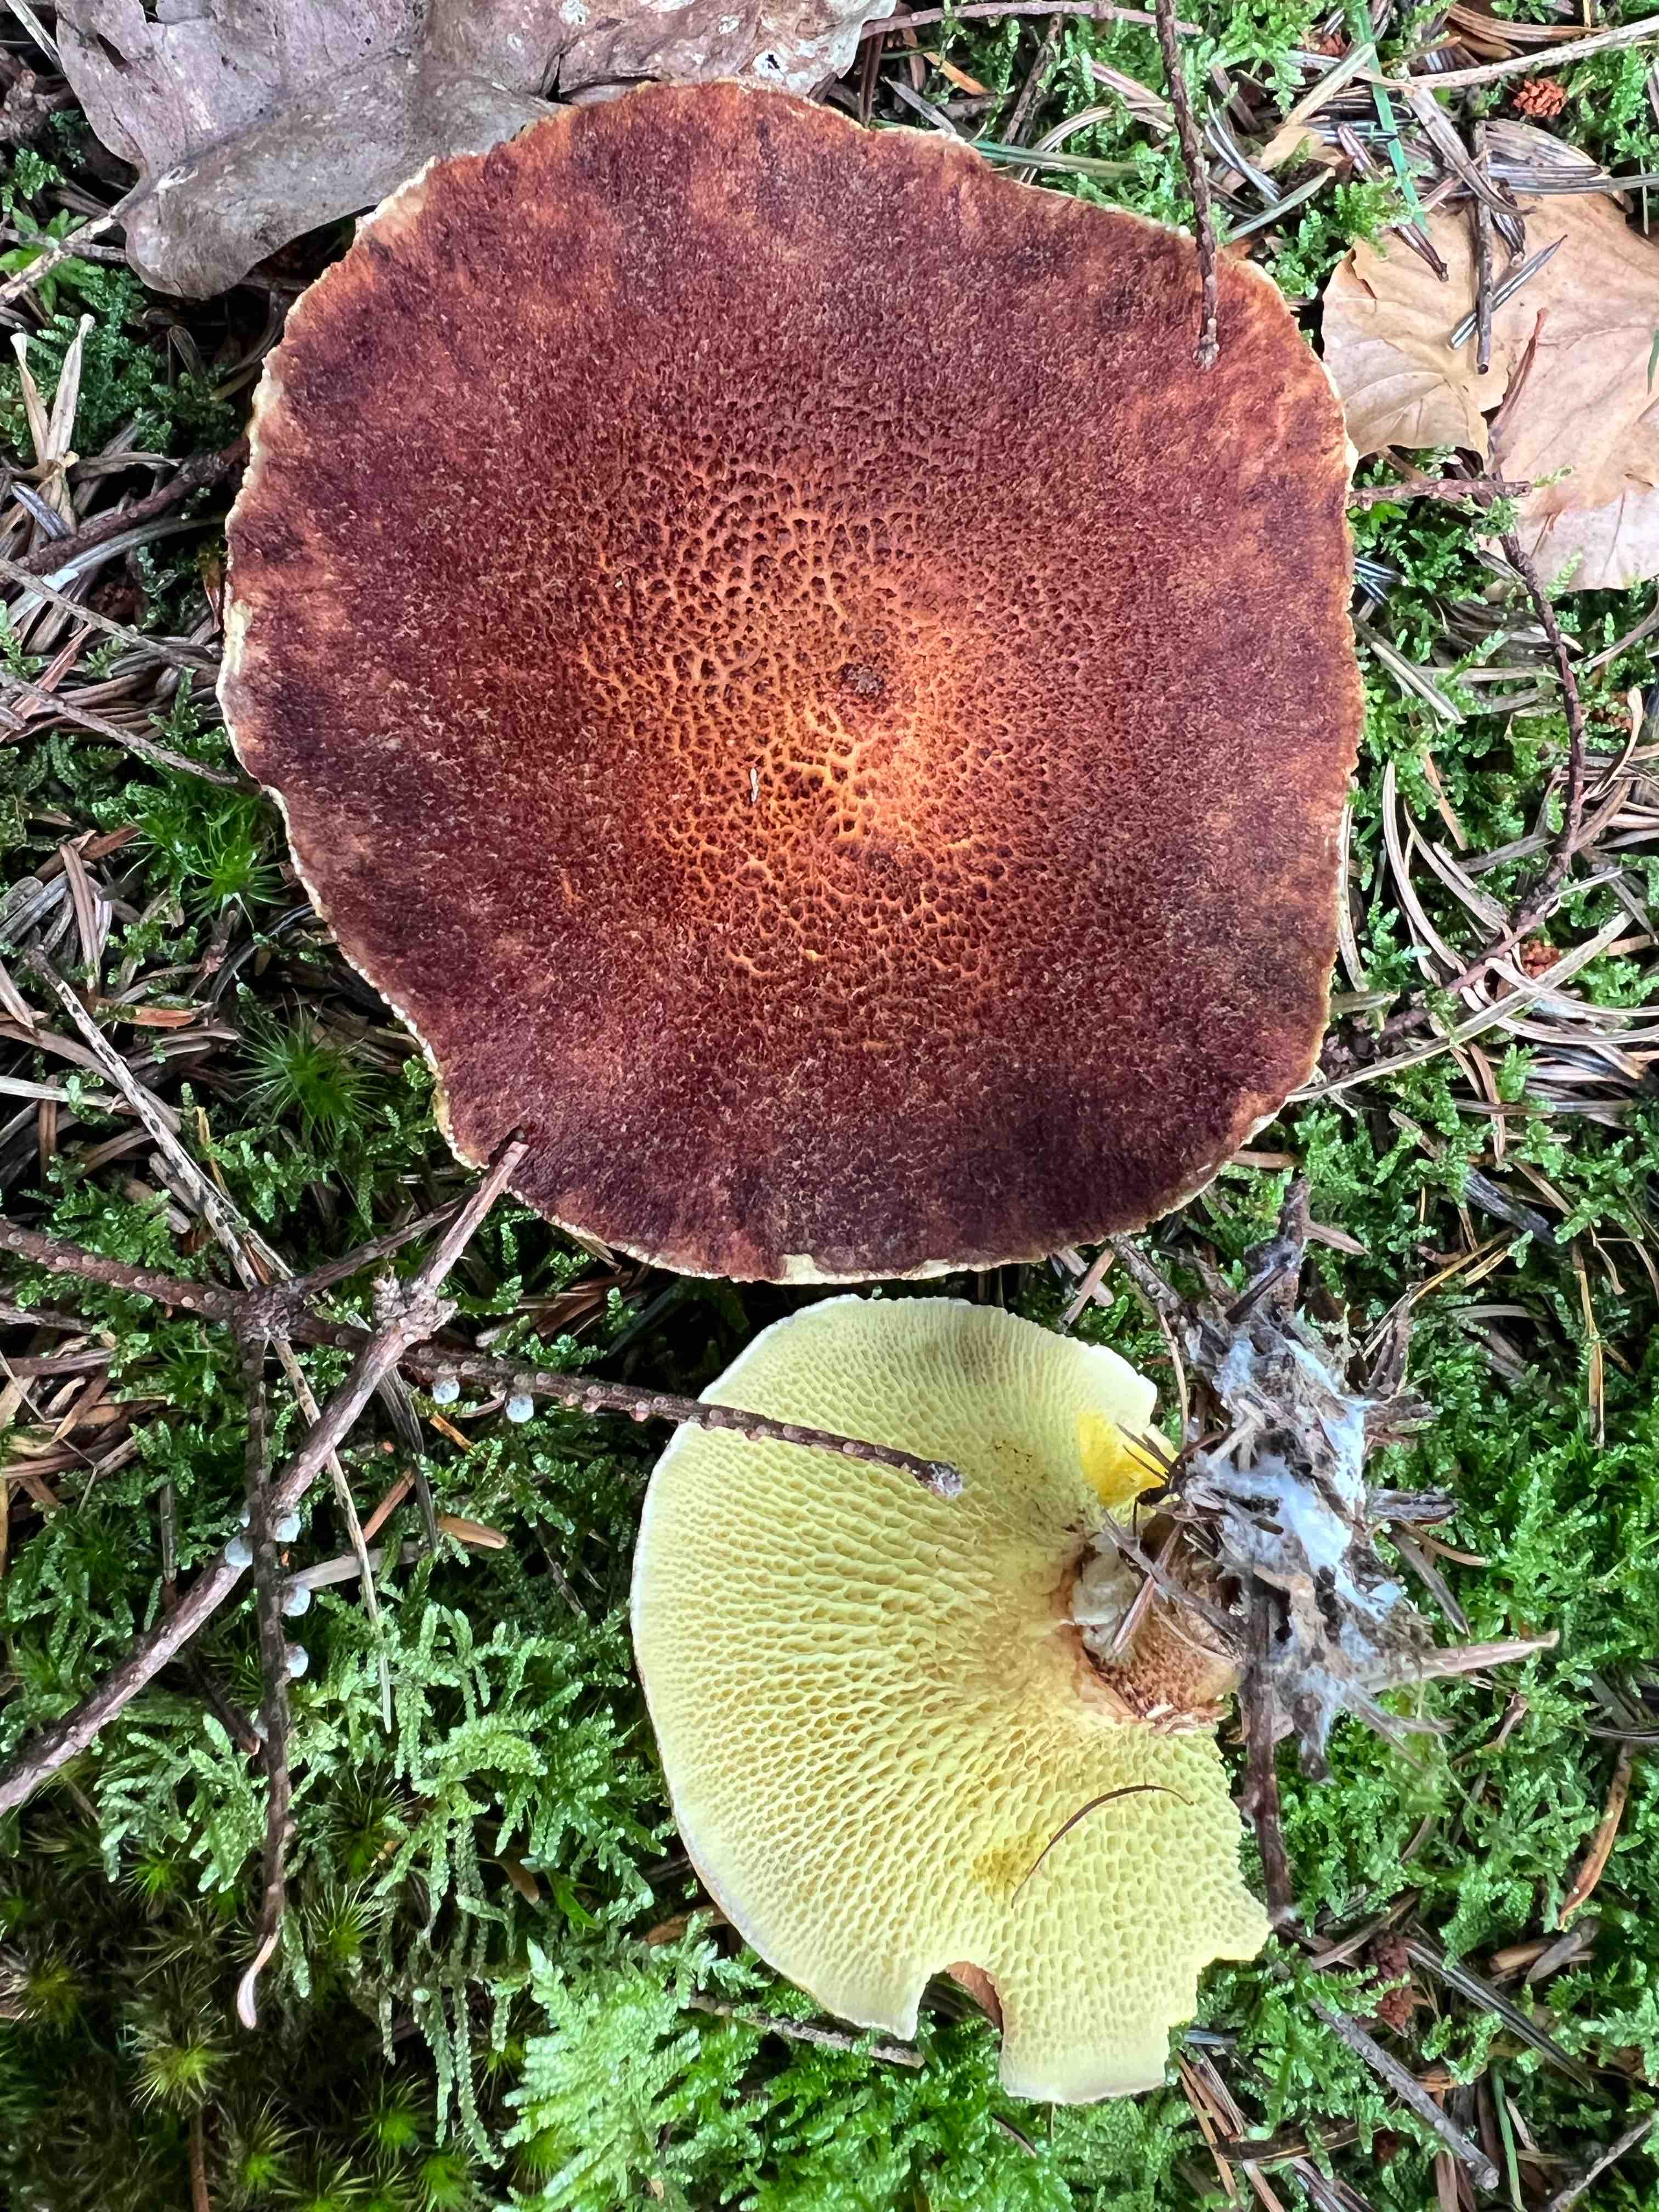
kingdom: Fungi
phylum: Basidiomycota
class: Agaricomycetes
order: Boletales
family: Suillaceae
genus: Suillus
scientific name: Suillus cavipes
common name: hulstokket slimrørhat
